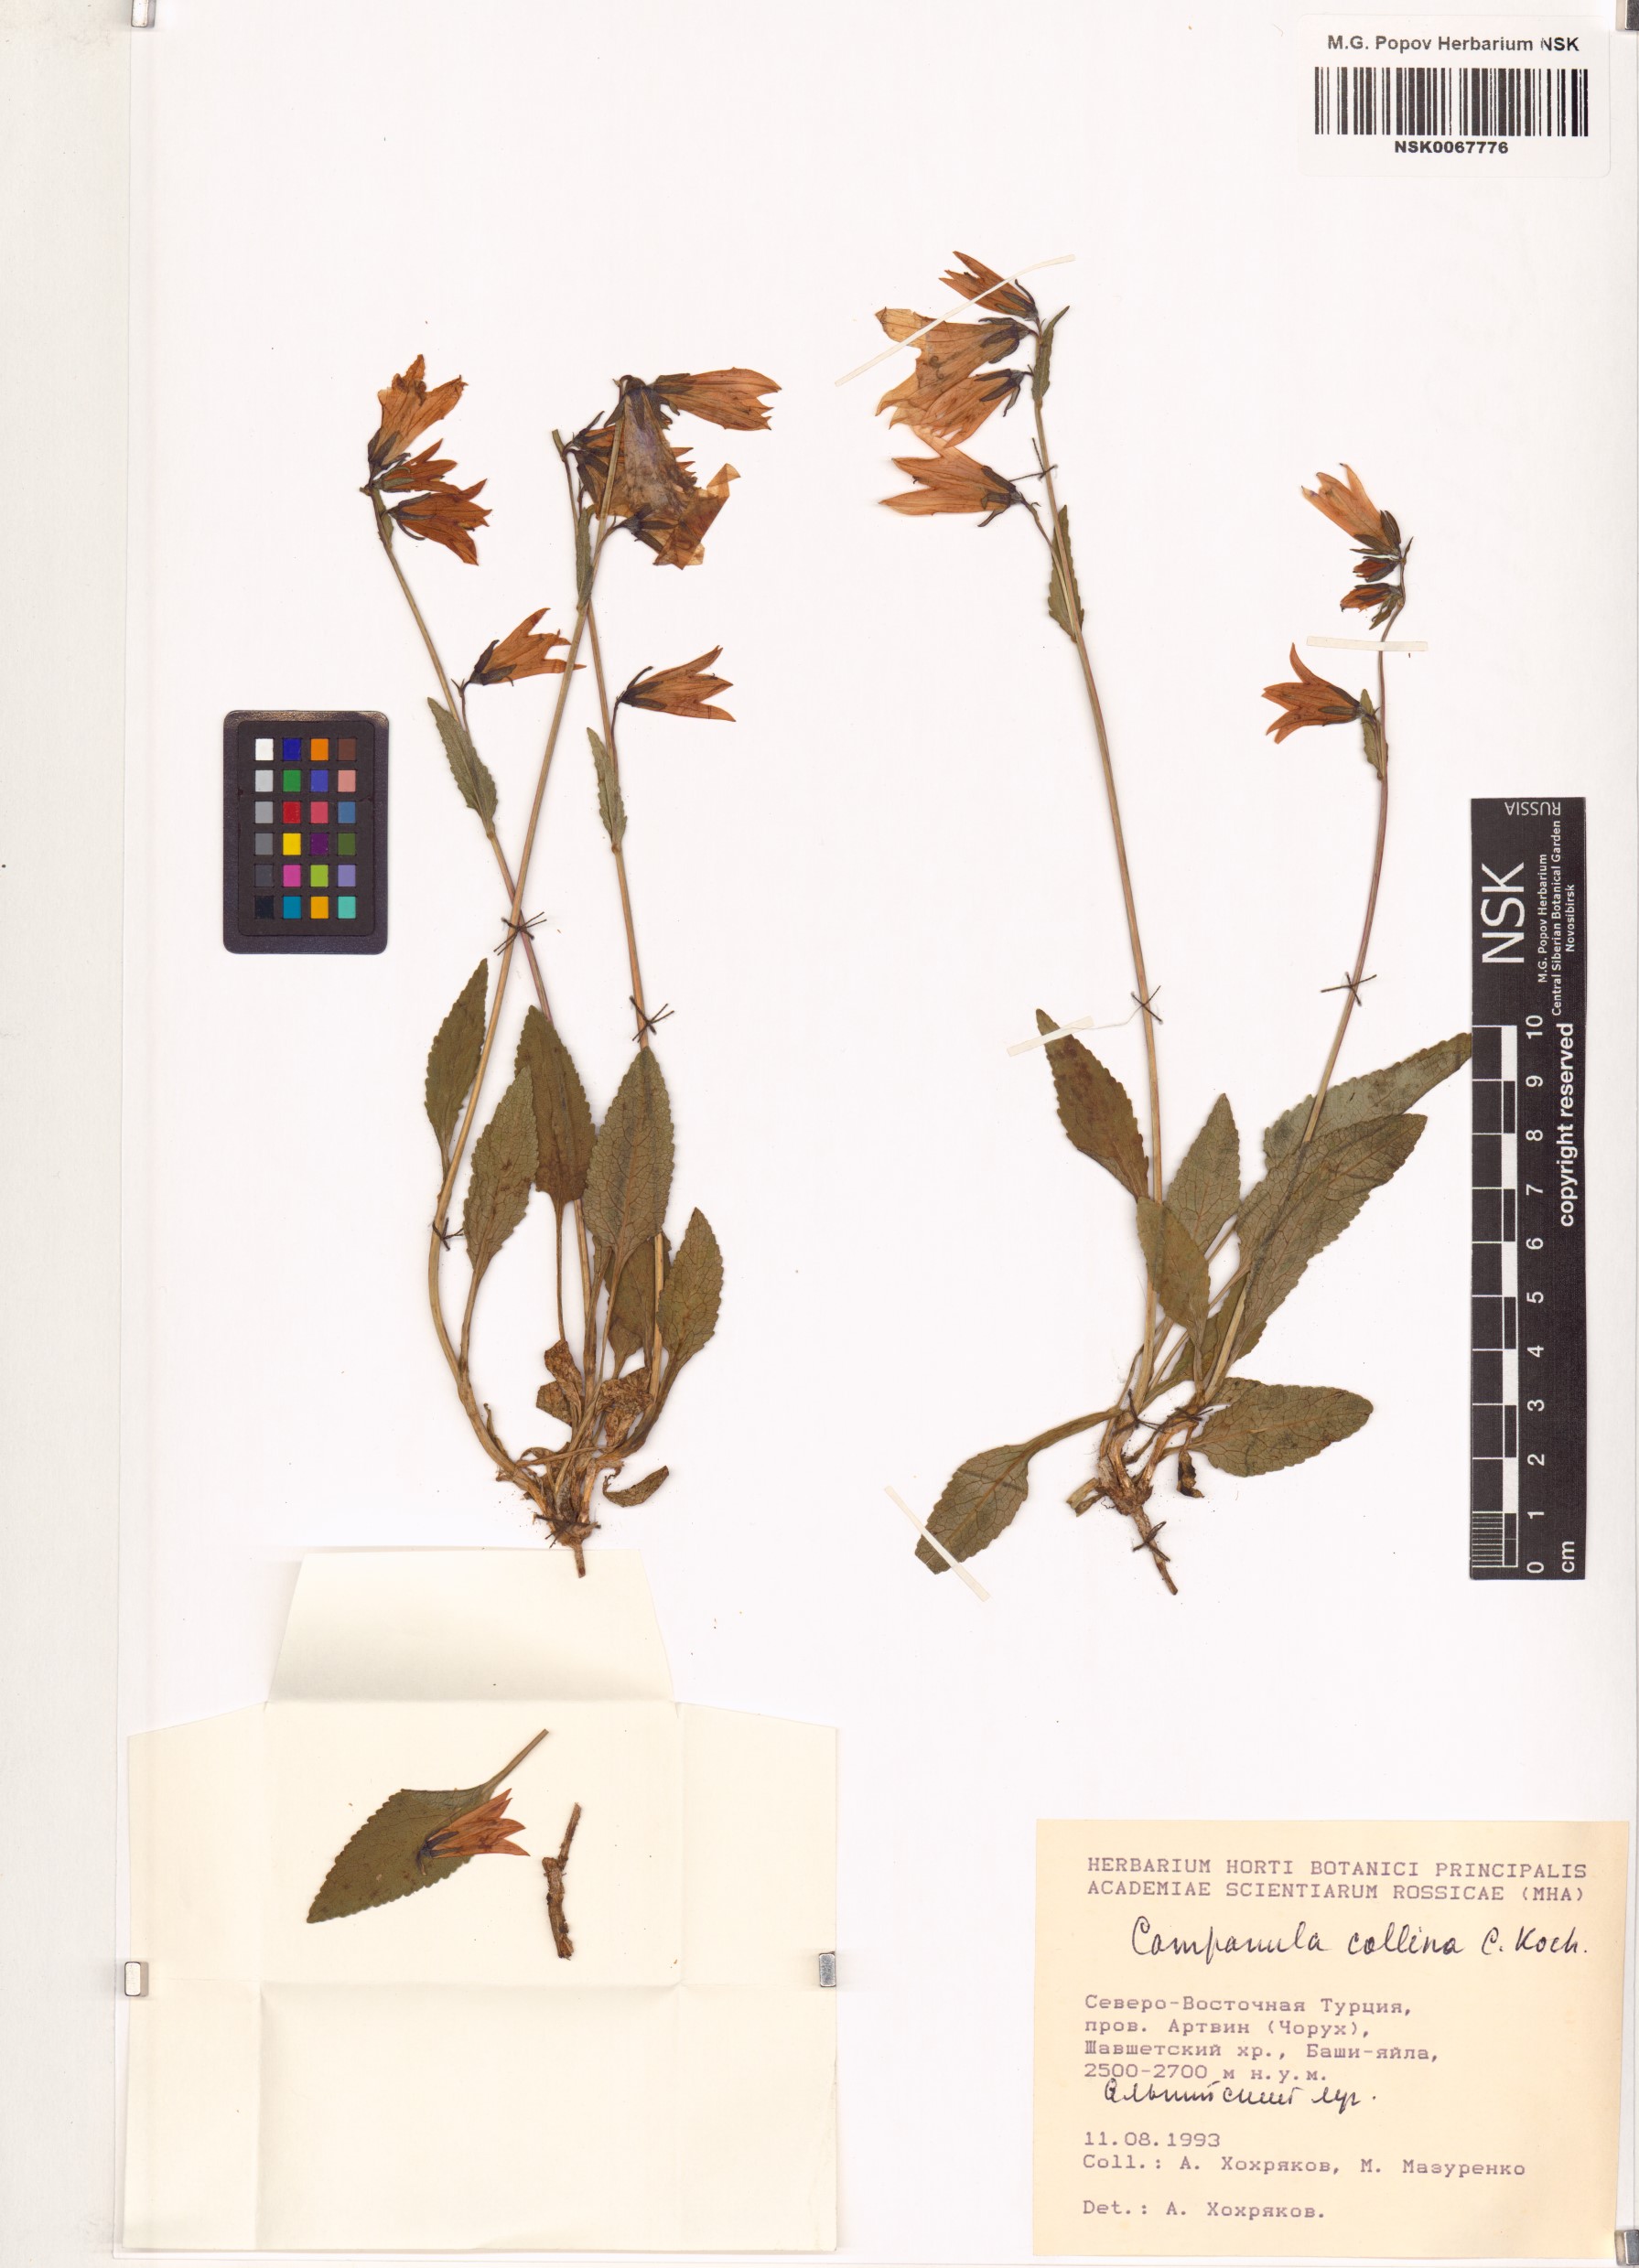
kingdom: Plantae
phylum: Tracheophyta
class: Magnoliopsida
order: Asterales
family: Campanulaceae
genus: Campanula
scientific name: Campanula collina
